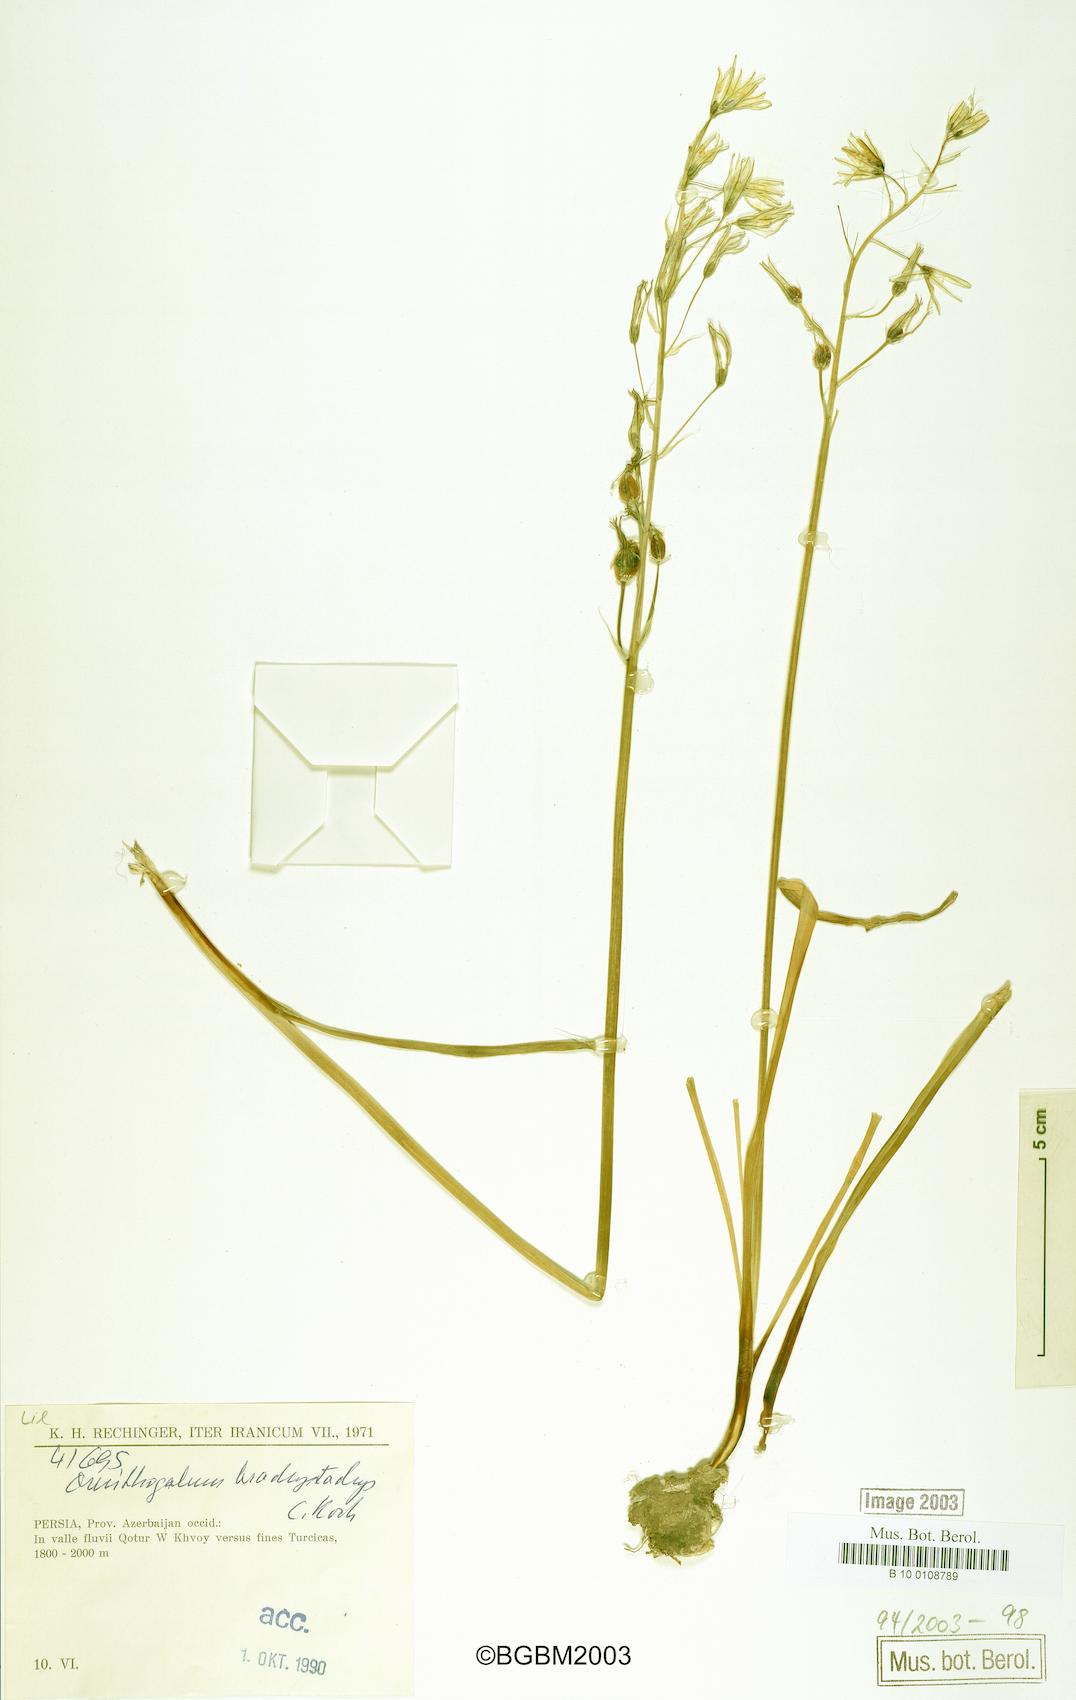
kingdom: Plantae
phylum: Tracheophyta
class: Liliopsida
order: Asparagales
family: Asparagaceae
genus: Ornithogalum
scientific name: Ornithogalum narbonense
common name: Bath-asparagus
